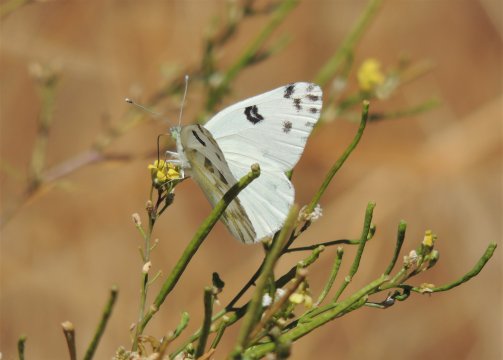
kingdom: Animalia
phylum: Arthropoda
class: Insecta
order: Lepidoptera
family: Pieridae
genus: Pontia
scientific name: Pontia beckerii
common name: Becker's White
